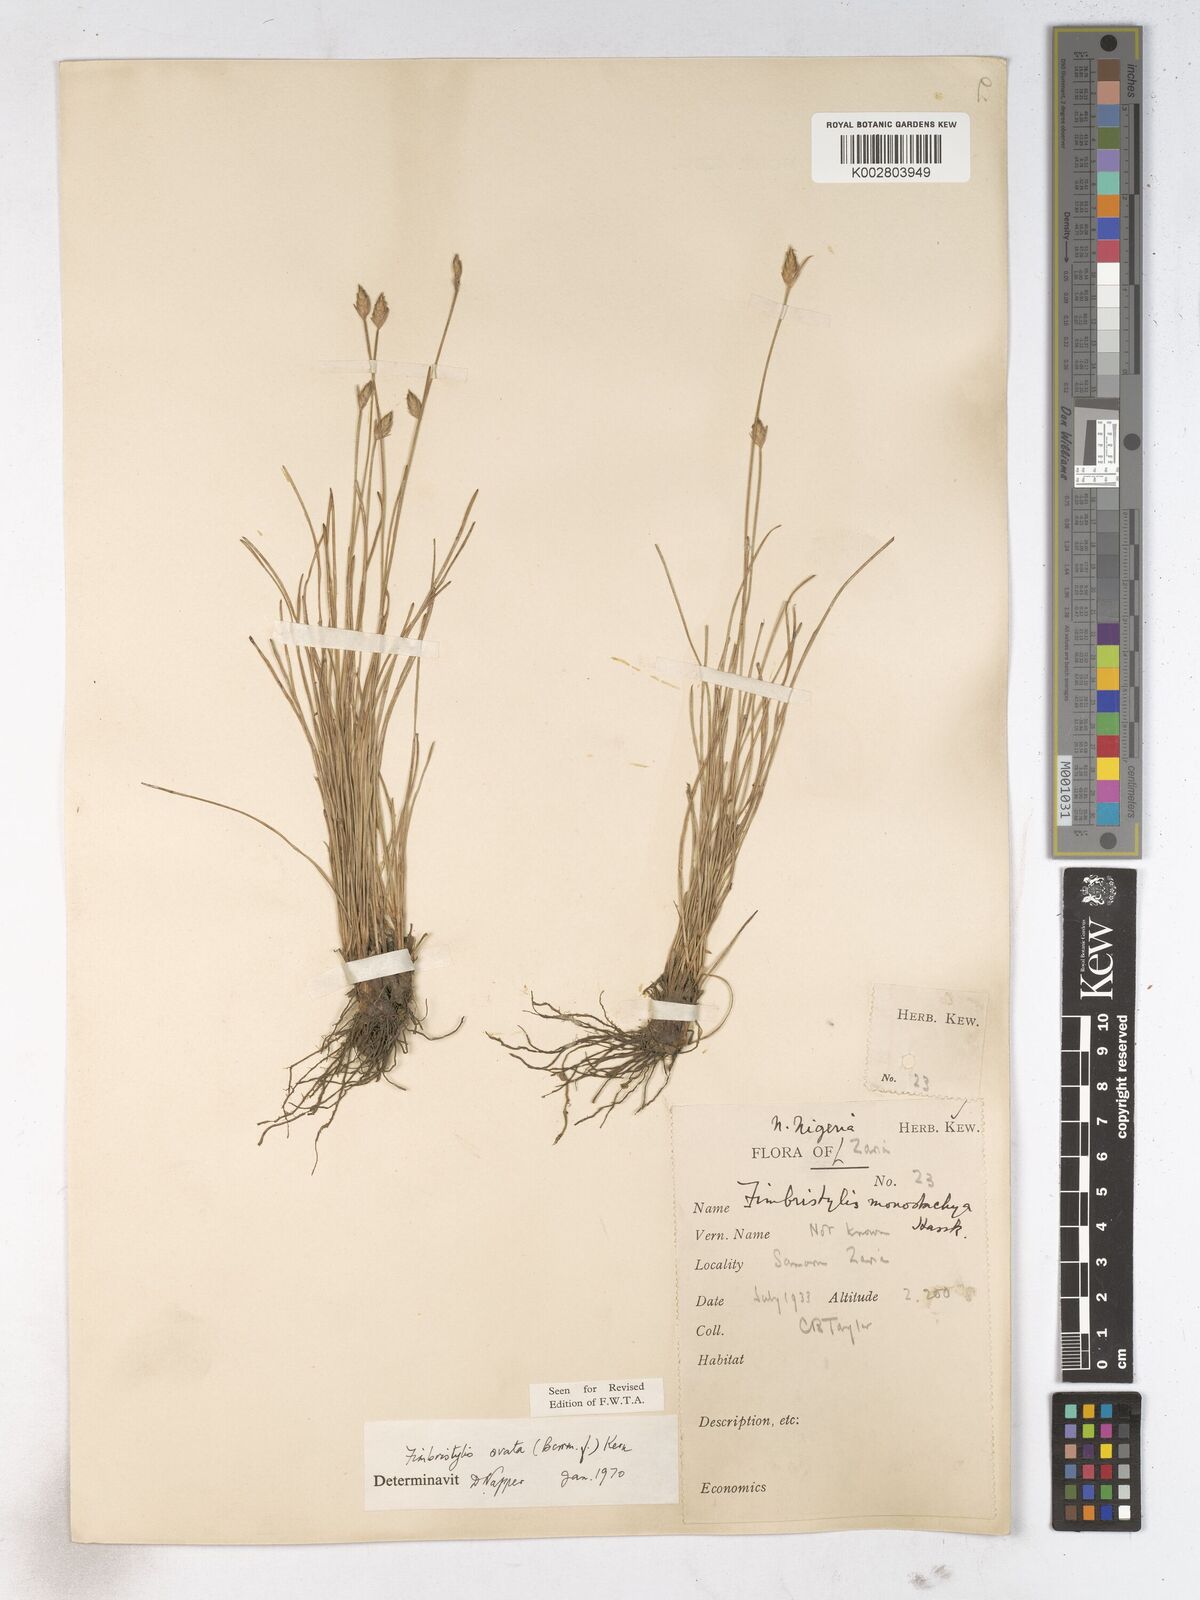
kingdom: Plantae
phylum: Tracheophyta
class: Liliopsida
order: Poales
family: Cyperaceae
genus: Abildgaardia
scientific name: Abildgaardia ovata
